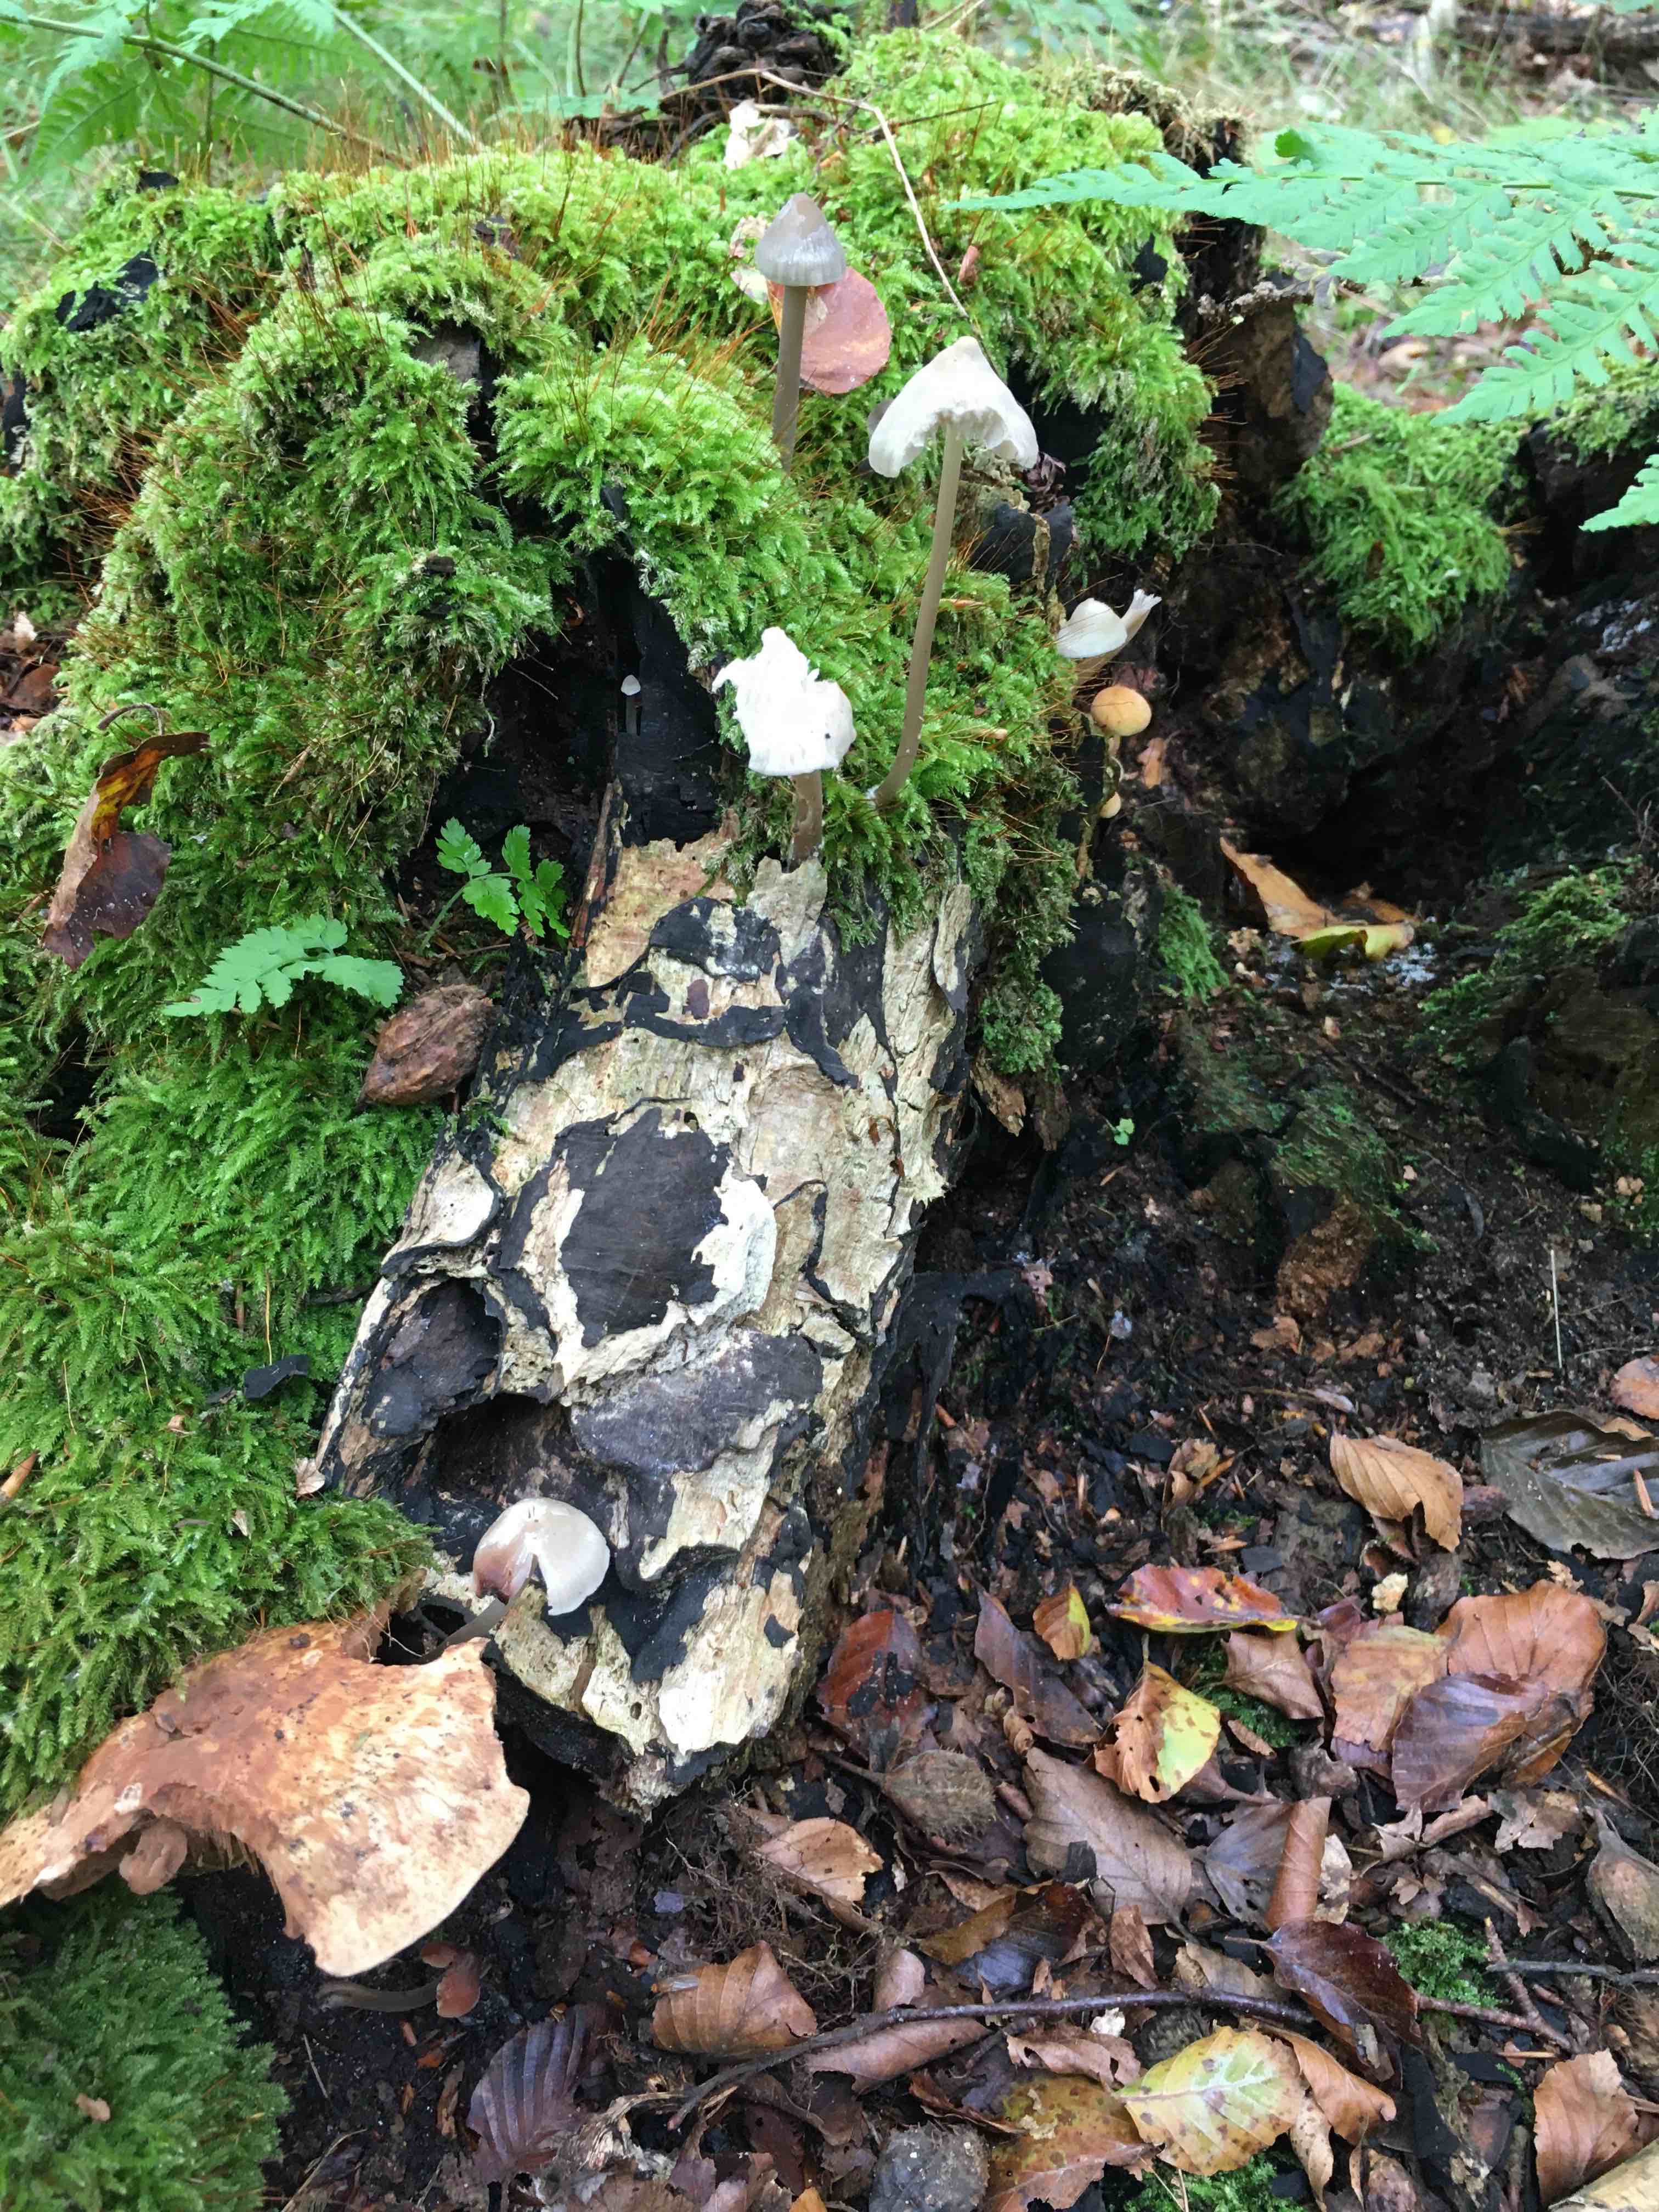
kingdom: Fungi
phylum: Basidiomycota
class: Agaricomycetes
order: Agaricales
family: Mycenaceae
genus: Mycena
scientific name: Mycena galericulata
